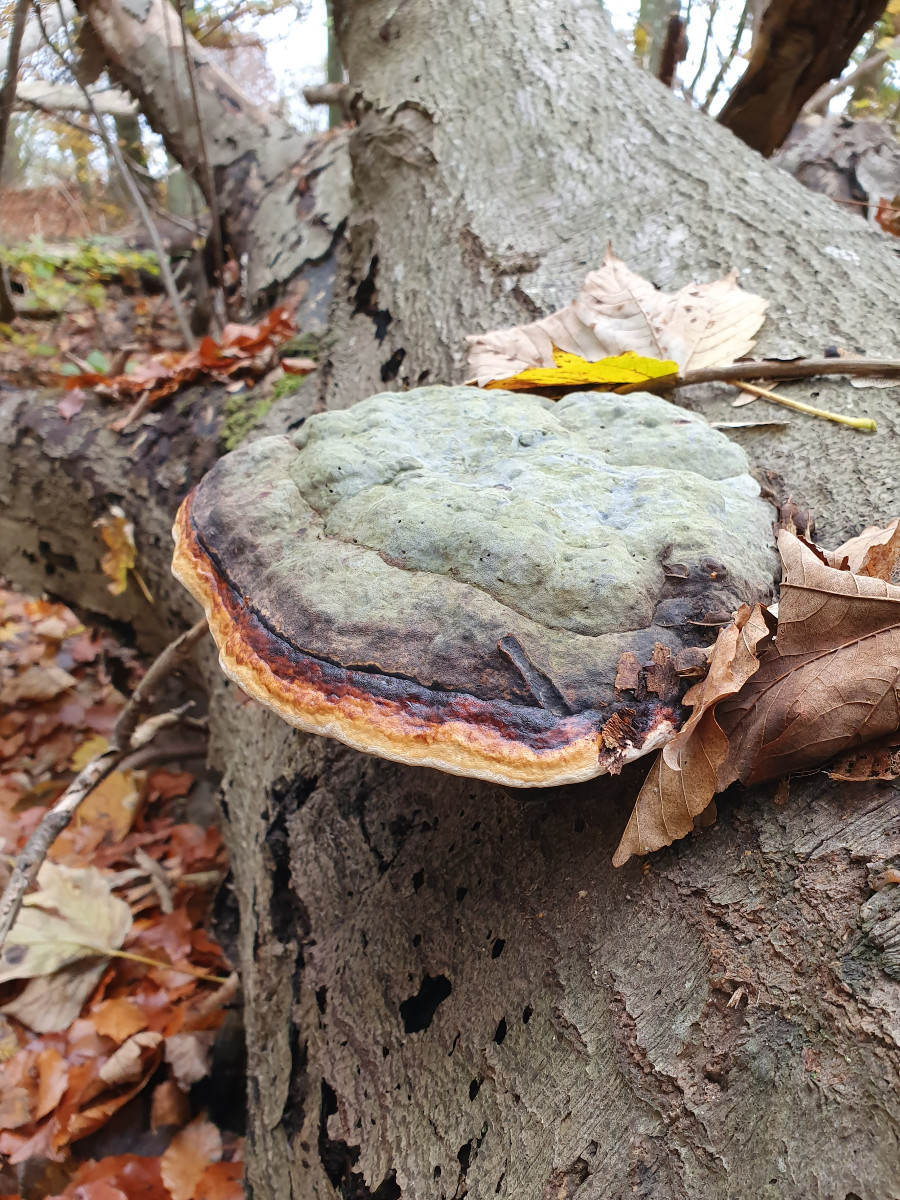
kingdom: Fungi
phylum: Basidiomycota
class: Agaricomycetes
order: Polyporales
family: Fomitopsidaceae
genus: Fomitopsis
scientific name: Fomitopsis pinicola
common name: randbæltet hovporesvamp
